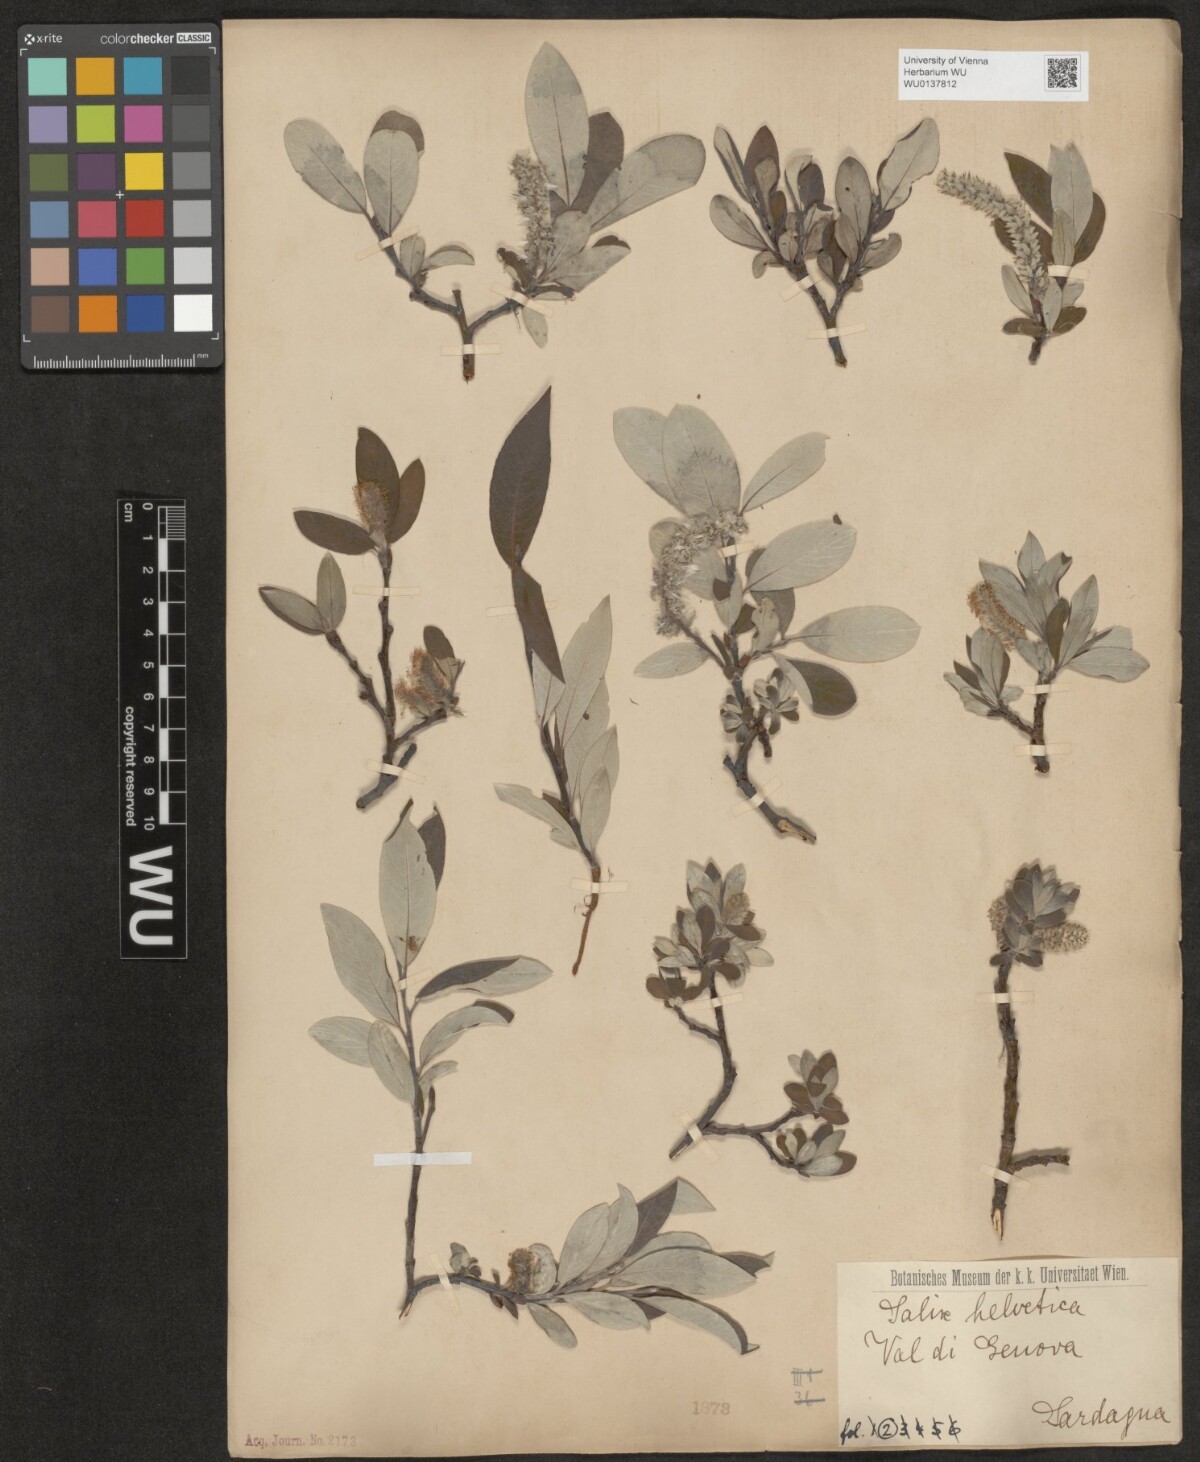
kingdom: Plantae
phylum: Tracheophyta
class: Magnoliopsida
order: Malpighiales
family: Salicaceae
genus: Salix
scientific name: Salix helvetica
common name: Swiss willow
